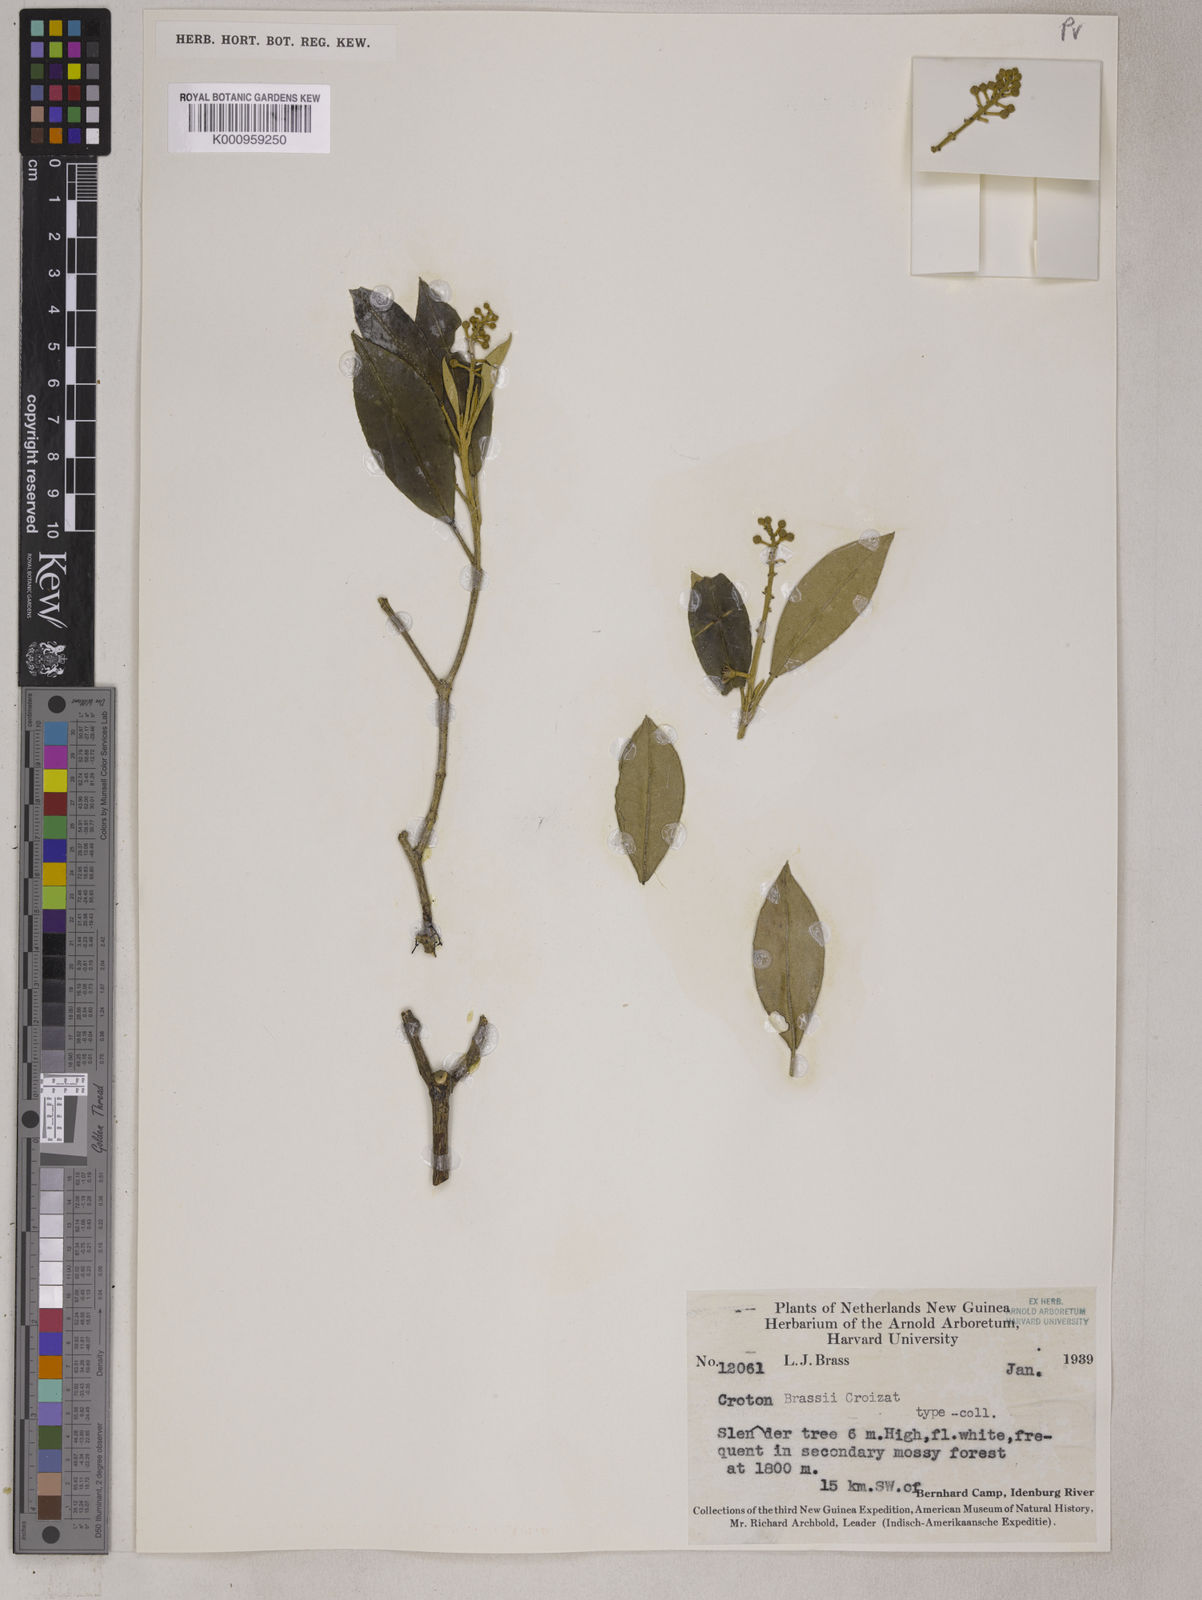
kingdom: Plantae
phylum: Tracheophyta
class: Magnoliopsida
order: Malpighiales
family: Euphorbiaceae
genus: Croton
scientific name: Croton brassii
